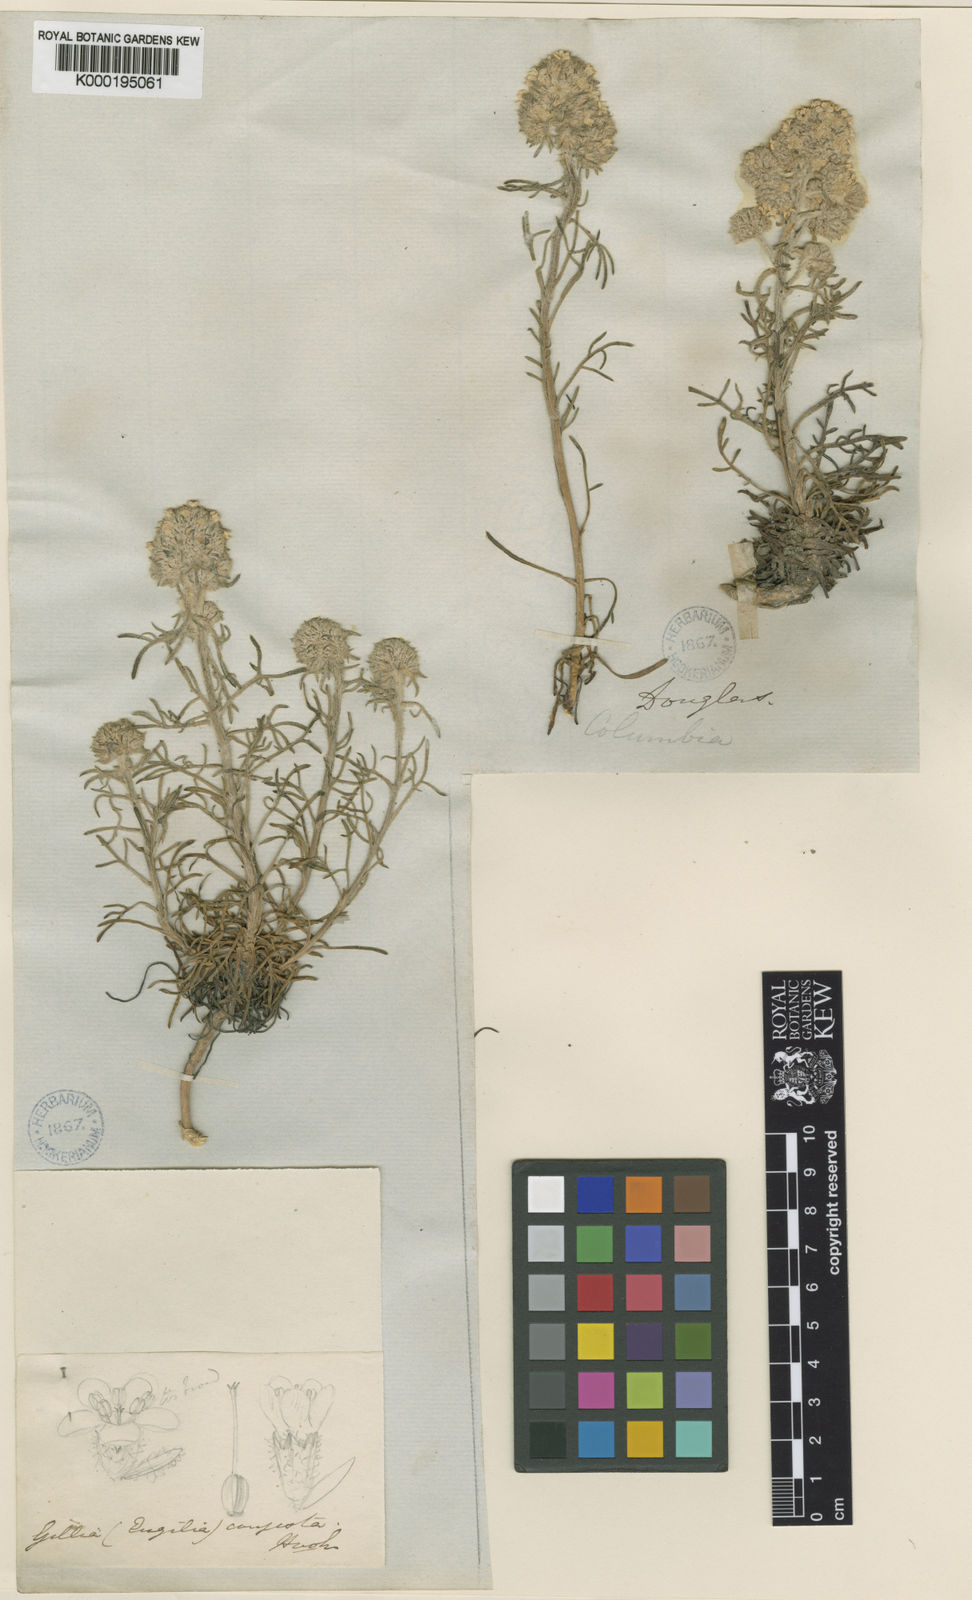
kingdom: Plantae
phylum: Tracheophyta
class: Magnoliopsida
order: Ericales
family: Polemoniaceae
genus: Ipomopsis
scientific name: Ipomopsis congesta
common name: Ball-head gilia
